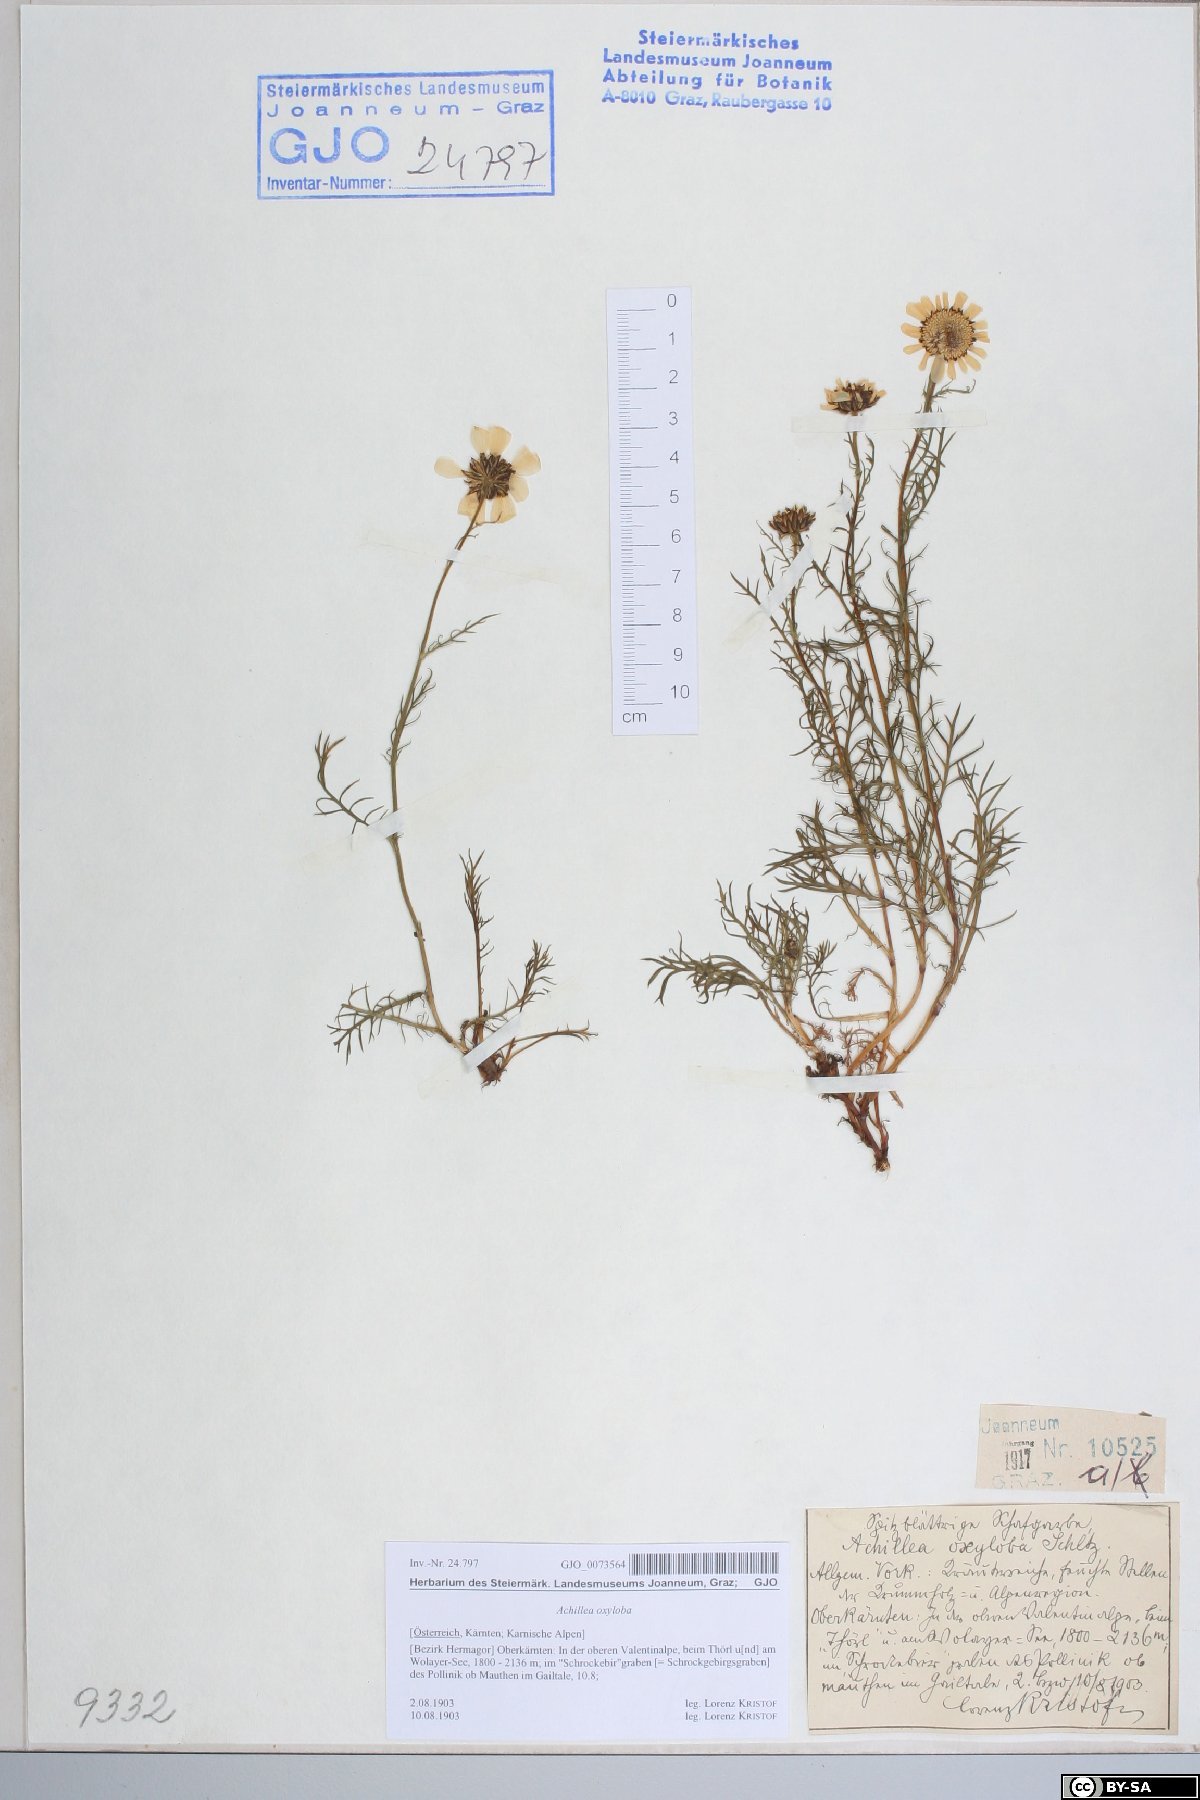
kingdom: Plantae
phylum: Tracheophyta
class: Magnoliopsida
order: Asterales
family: Asteraceae
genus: Achillea
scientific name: Achillea oxyloba
